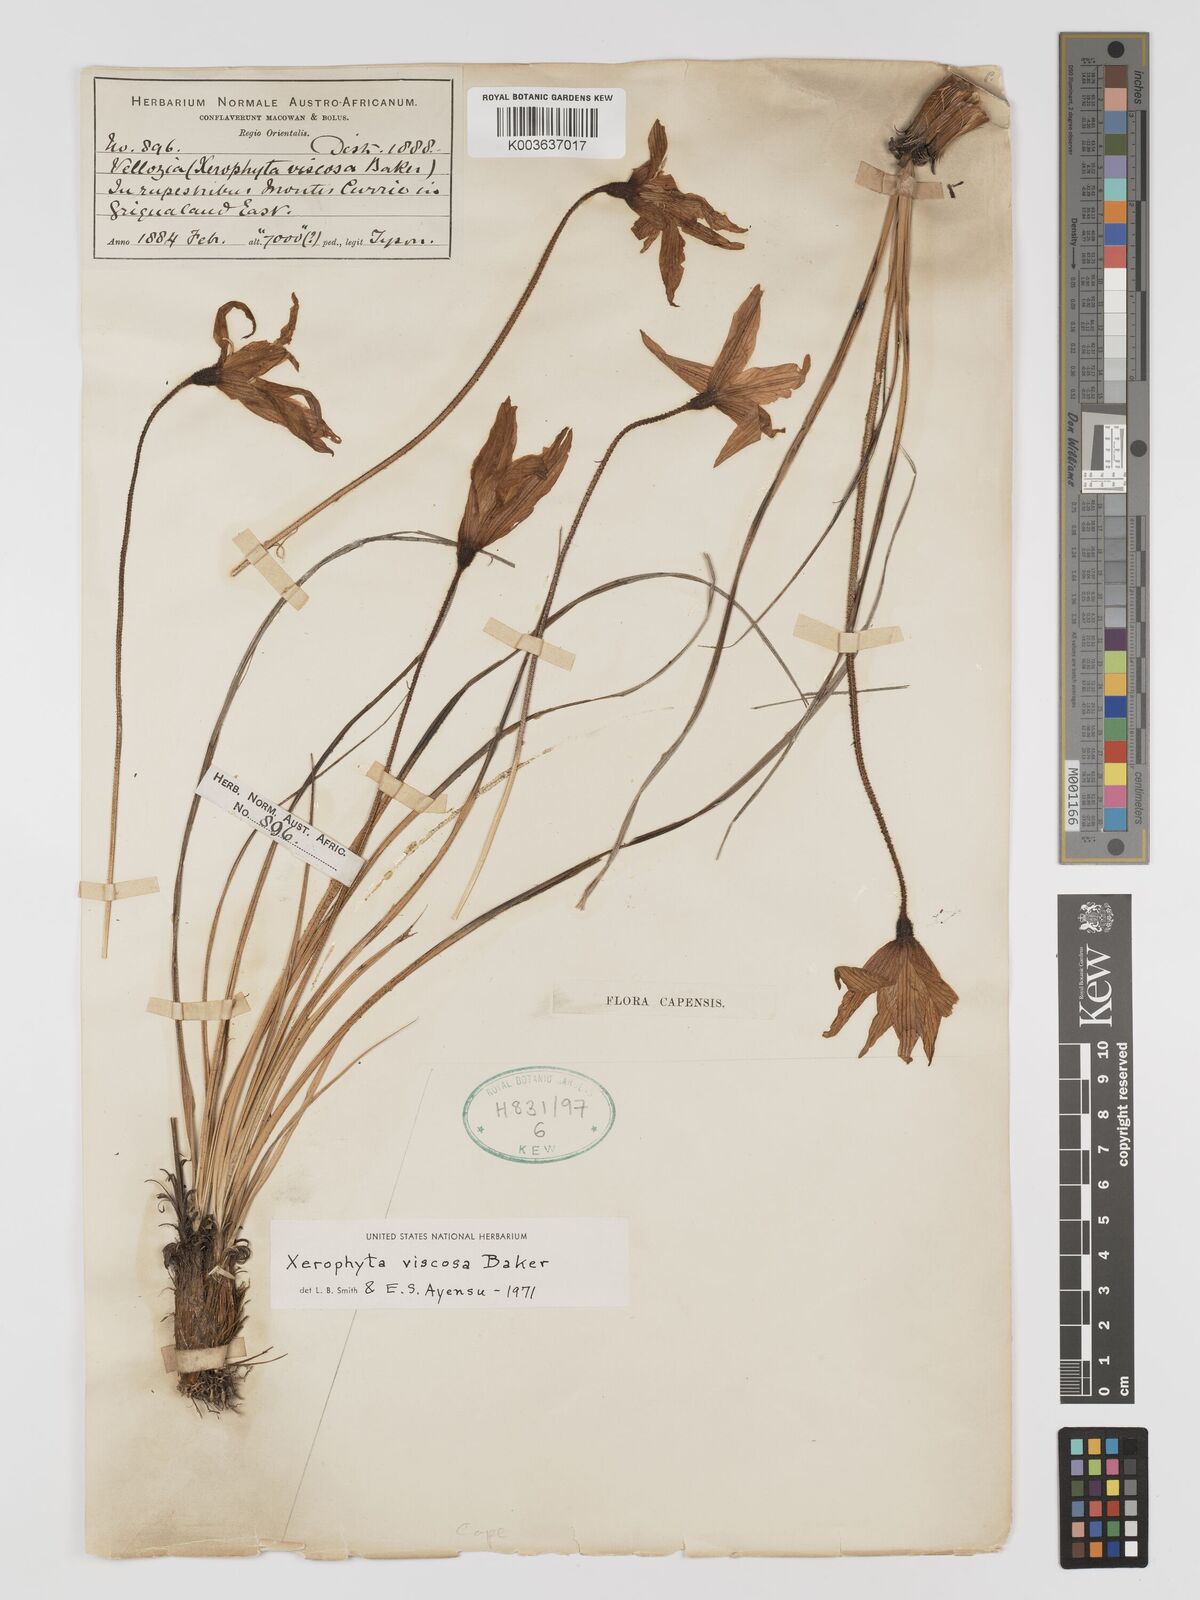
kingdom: Plantae
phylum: Tracheophyta
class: Liliopsida
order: Pandanales
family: Velloziaceae
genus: Xerophyta
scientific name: Xerophyta viscosa
